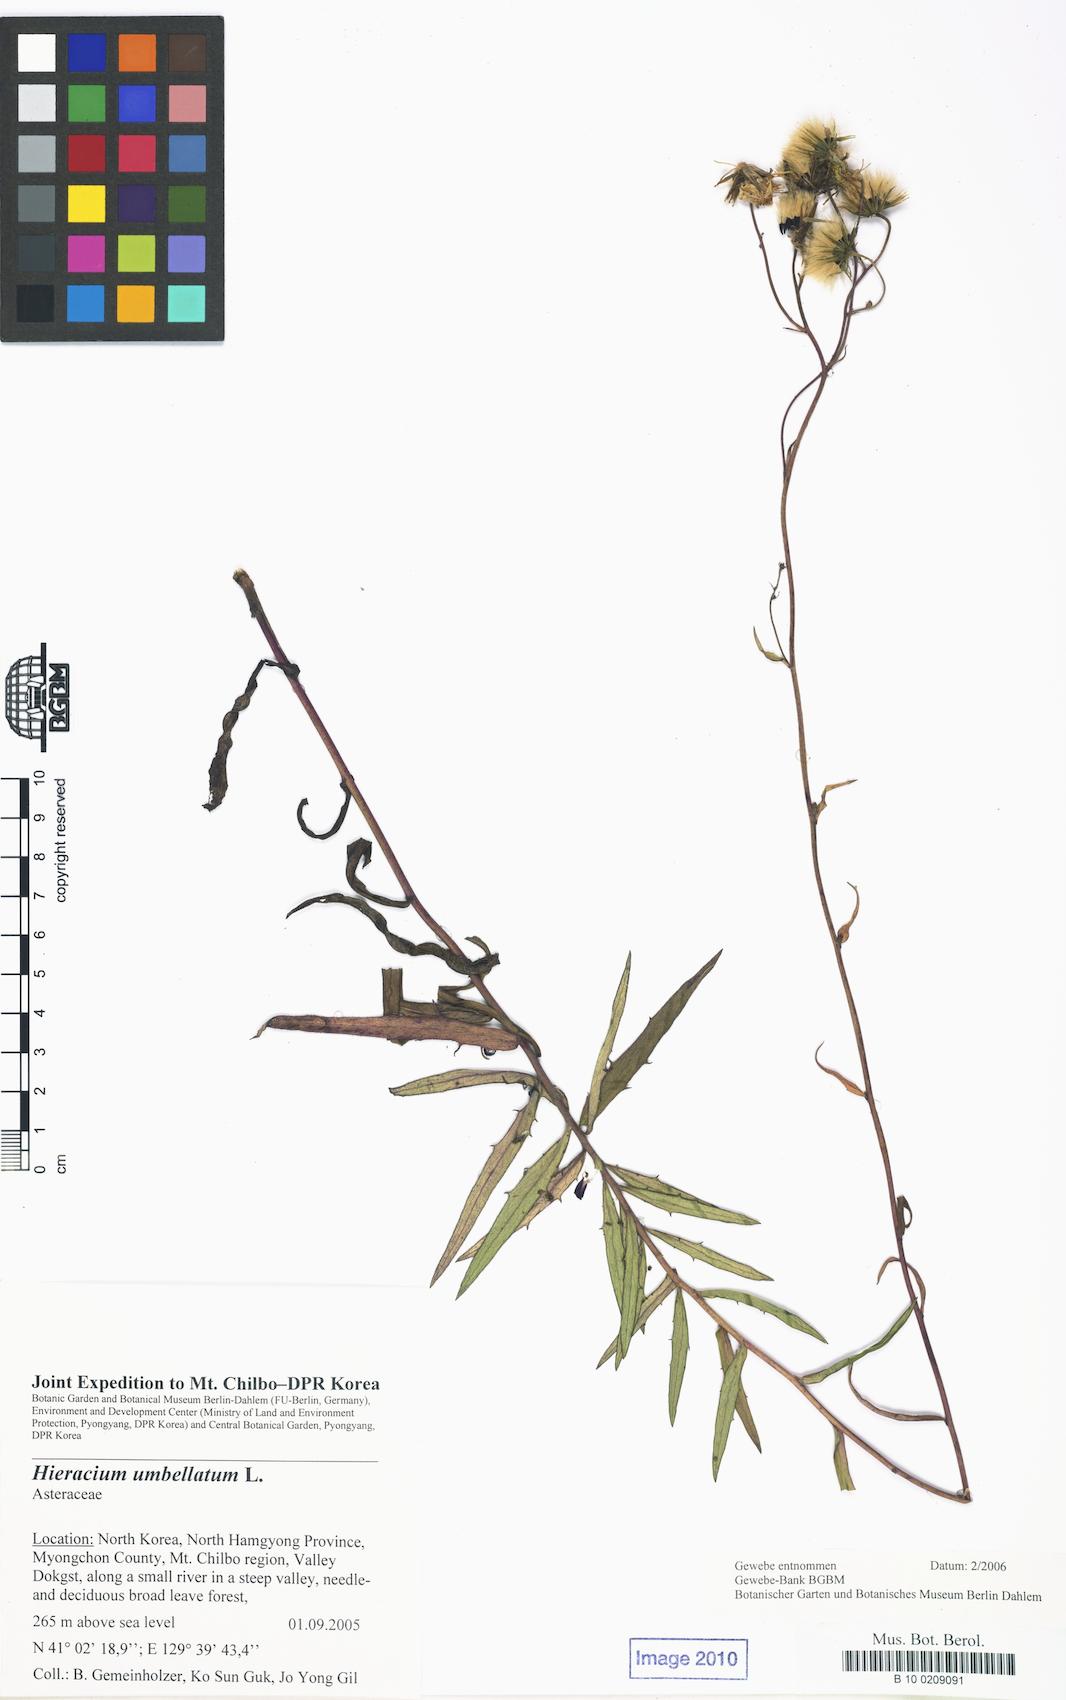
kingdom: Plantae
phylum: Tracheophyta
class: Magnoliopsida
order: Asterales
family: Asteraceae
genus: Hieracium
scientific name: Hieracium umbellatum
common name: Northern hawkweed
